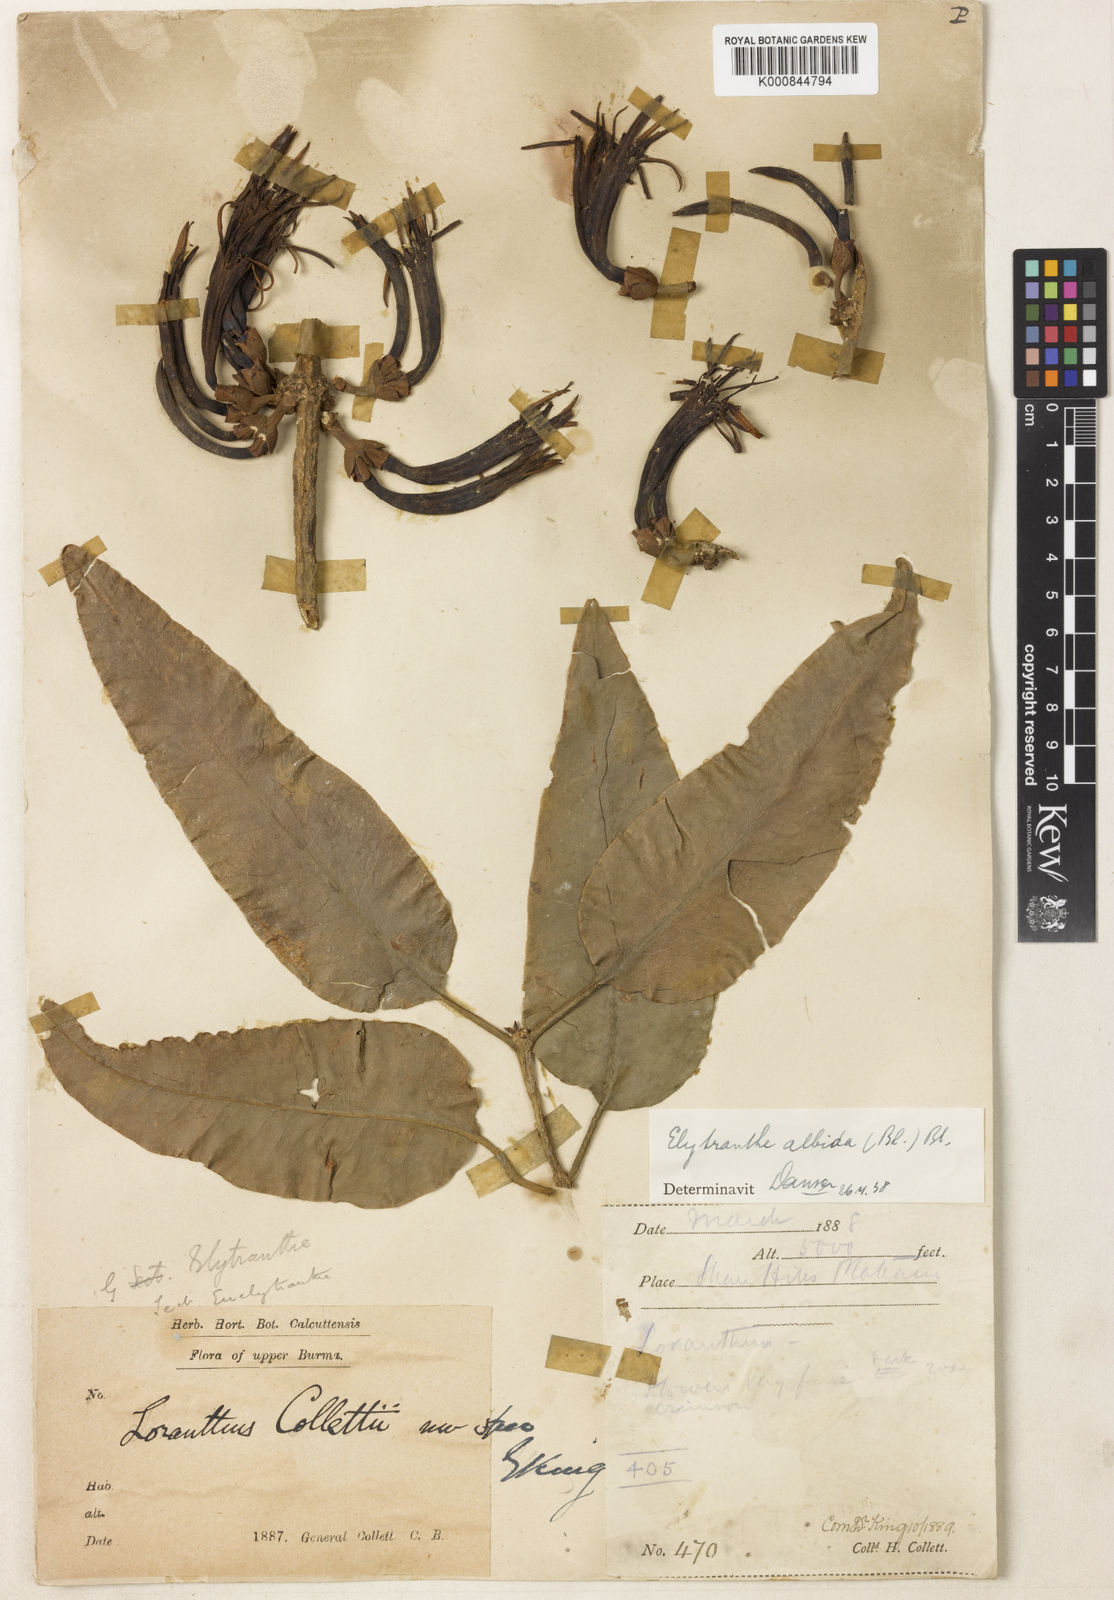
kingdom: Plantae
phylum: Tracheophyta
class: Magnoliopsida
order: Santalales
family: Loranthaceae
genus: Elytranthe
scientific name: Elytranthe albida
